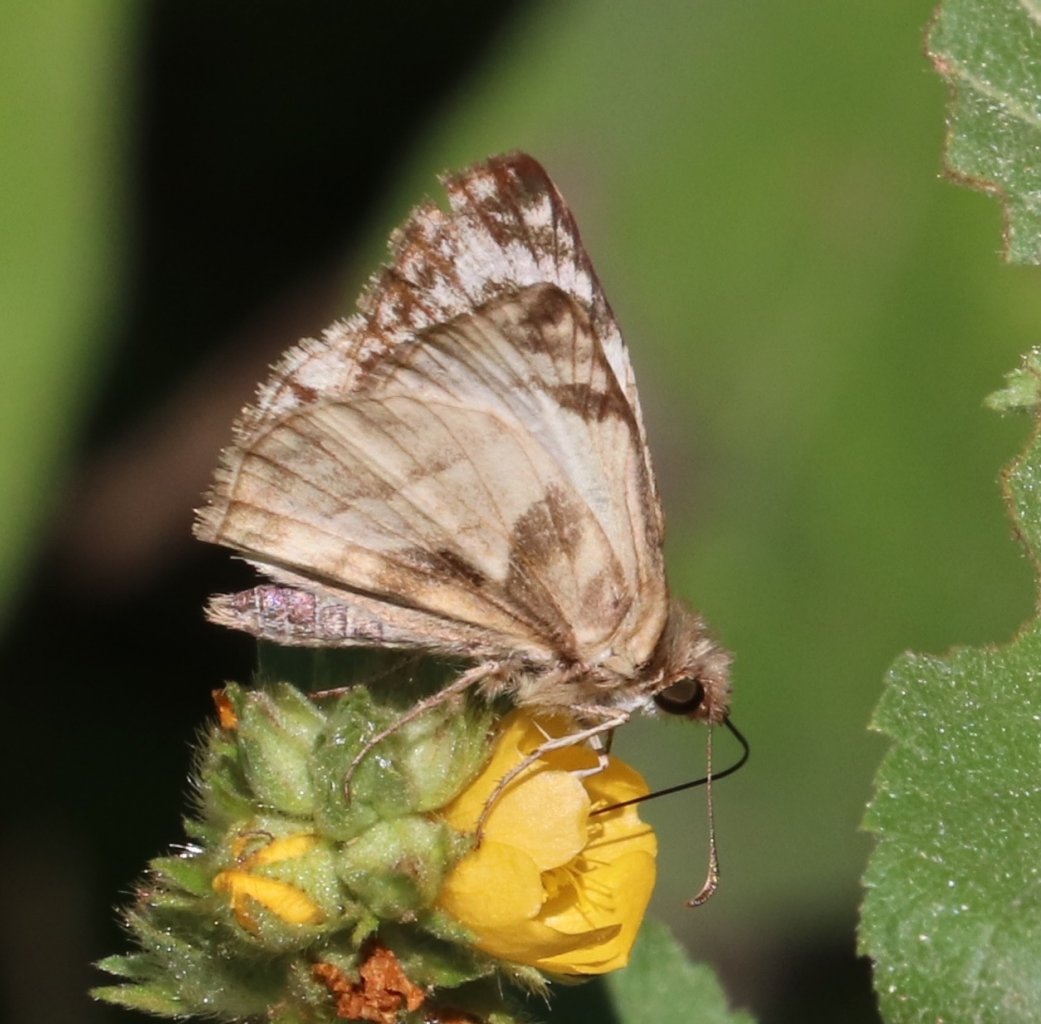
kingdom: Animalia
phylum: Arthropoda
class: Insecta
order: Lepidoptera
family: Hesperiidae
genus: Heliopetes
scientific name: Heliopetes laviana
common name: Laviana White-Skipper
